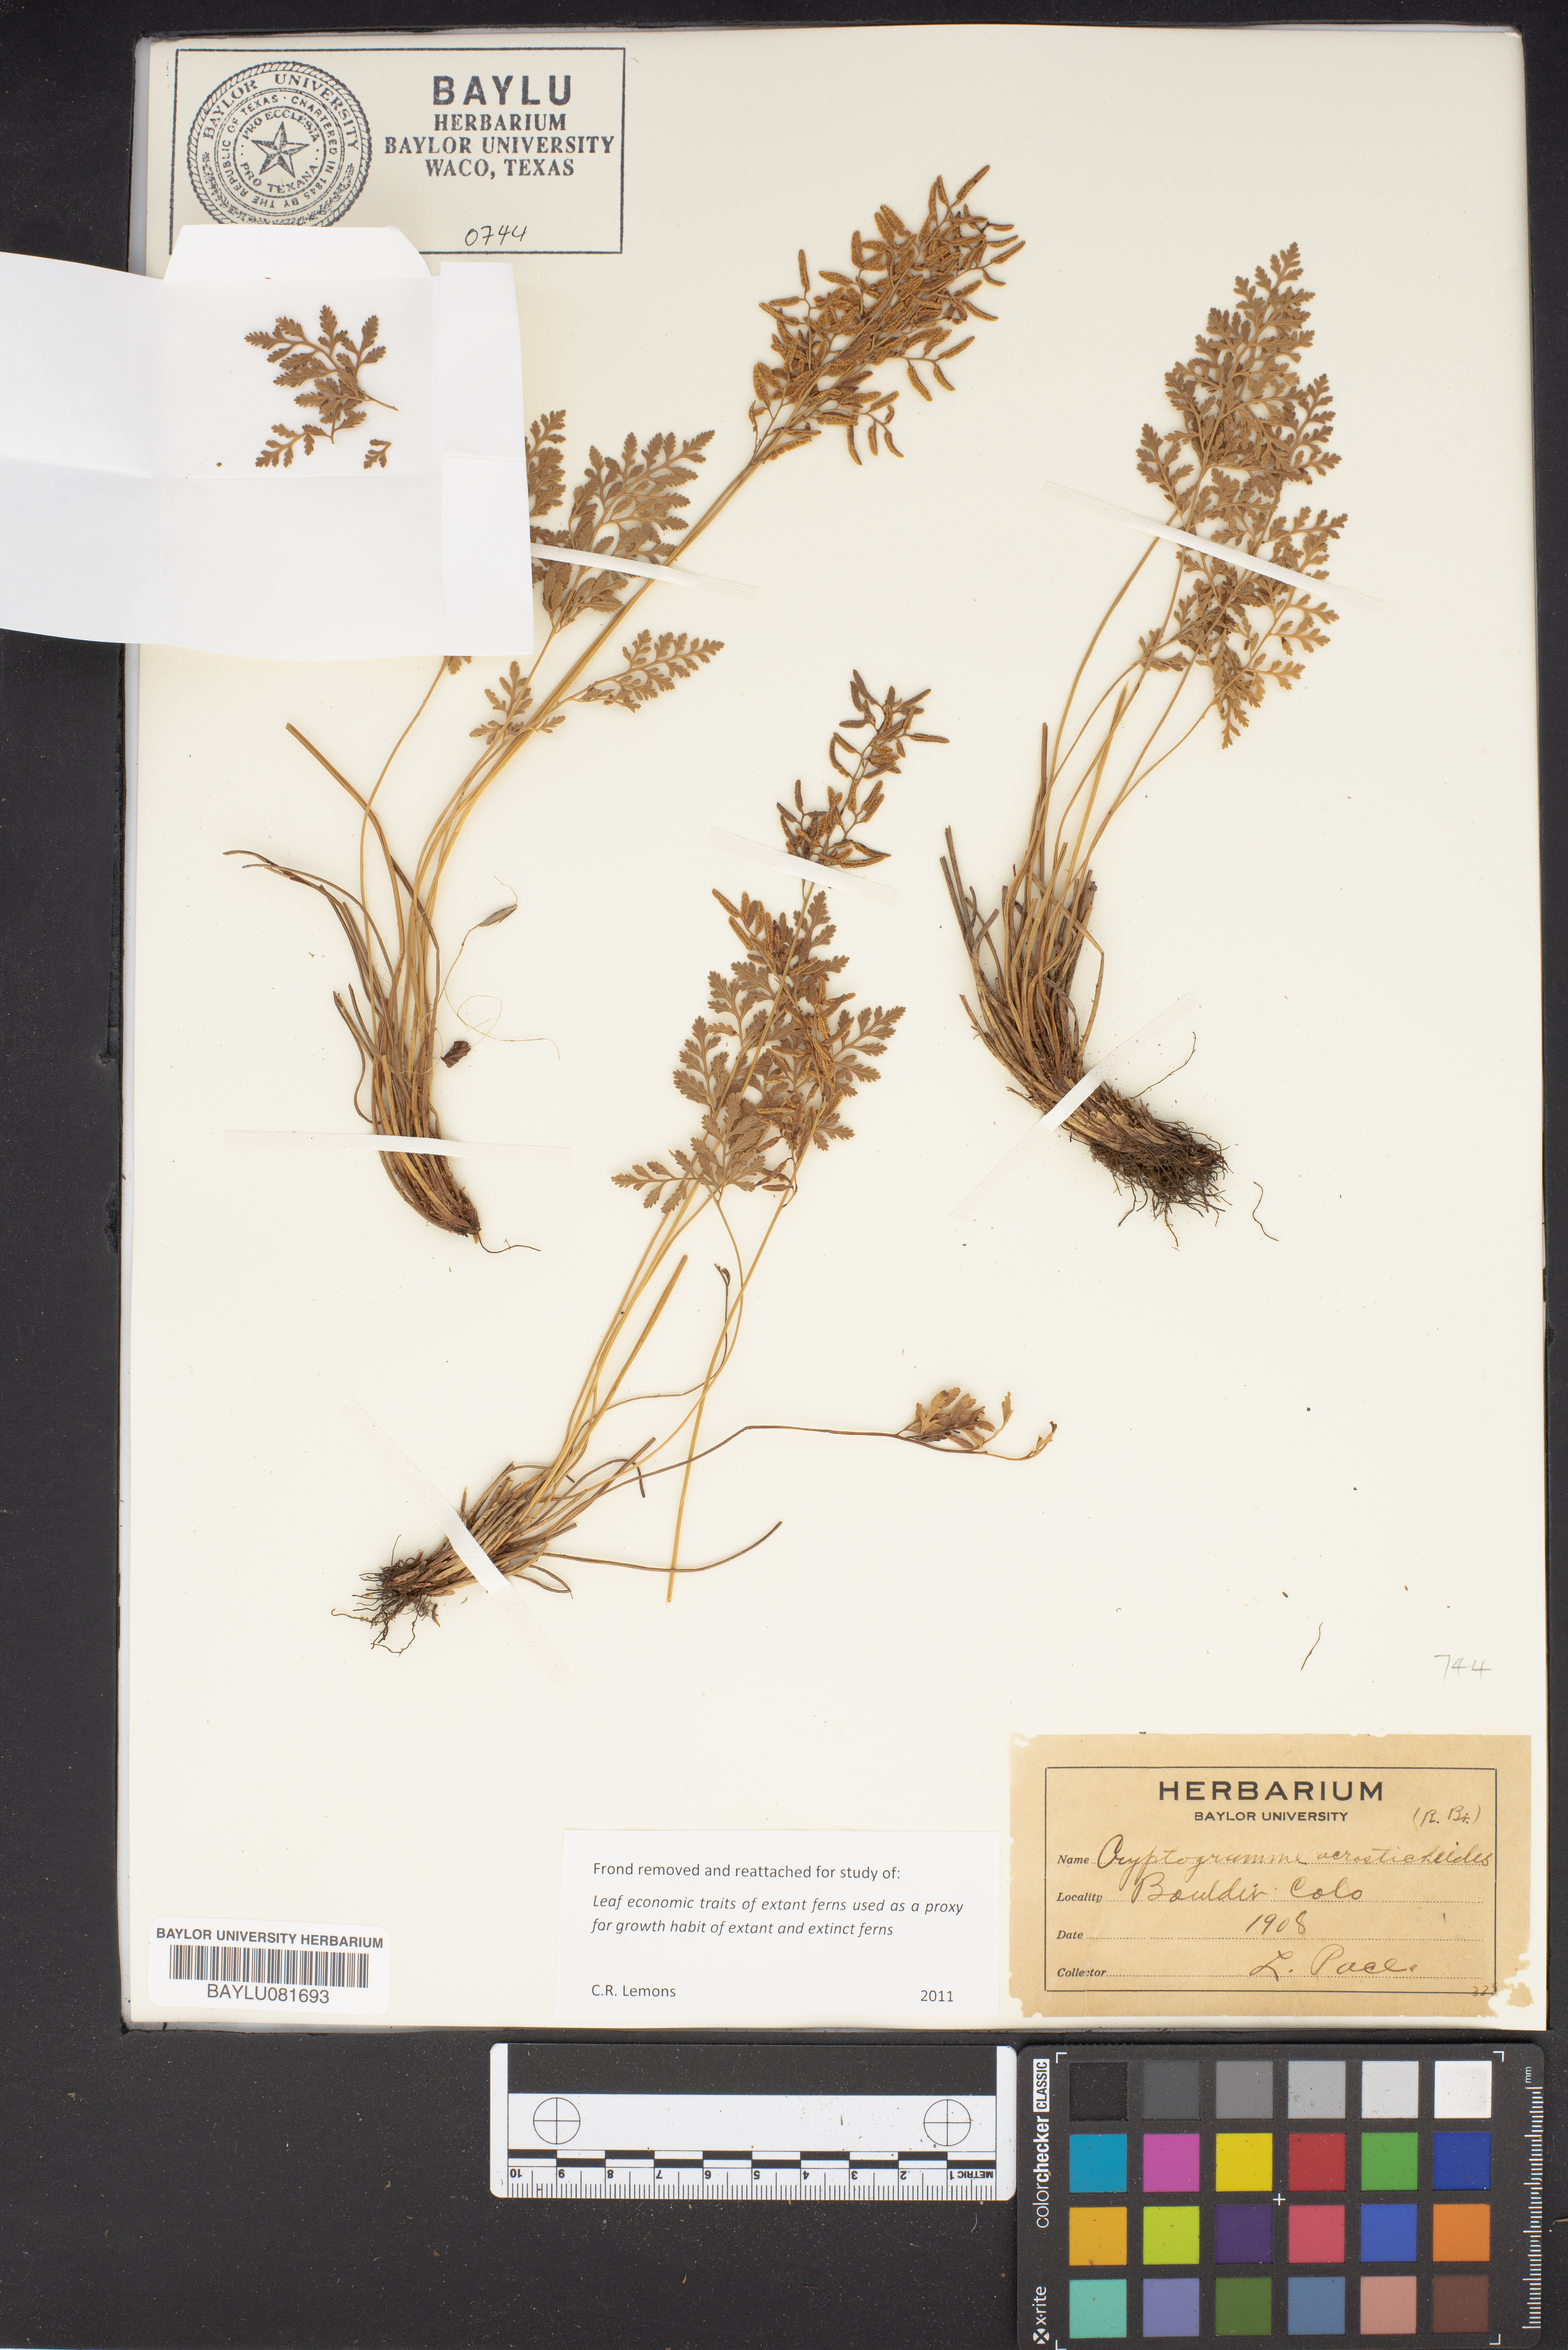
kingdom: Plantae
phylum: Tracheophyta
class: Polypodiopsida
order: Polypodiales
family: Pteridaceae
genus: Cryptogramma
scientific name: Cryptogramma acrostichoides
